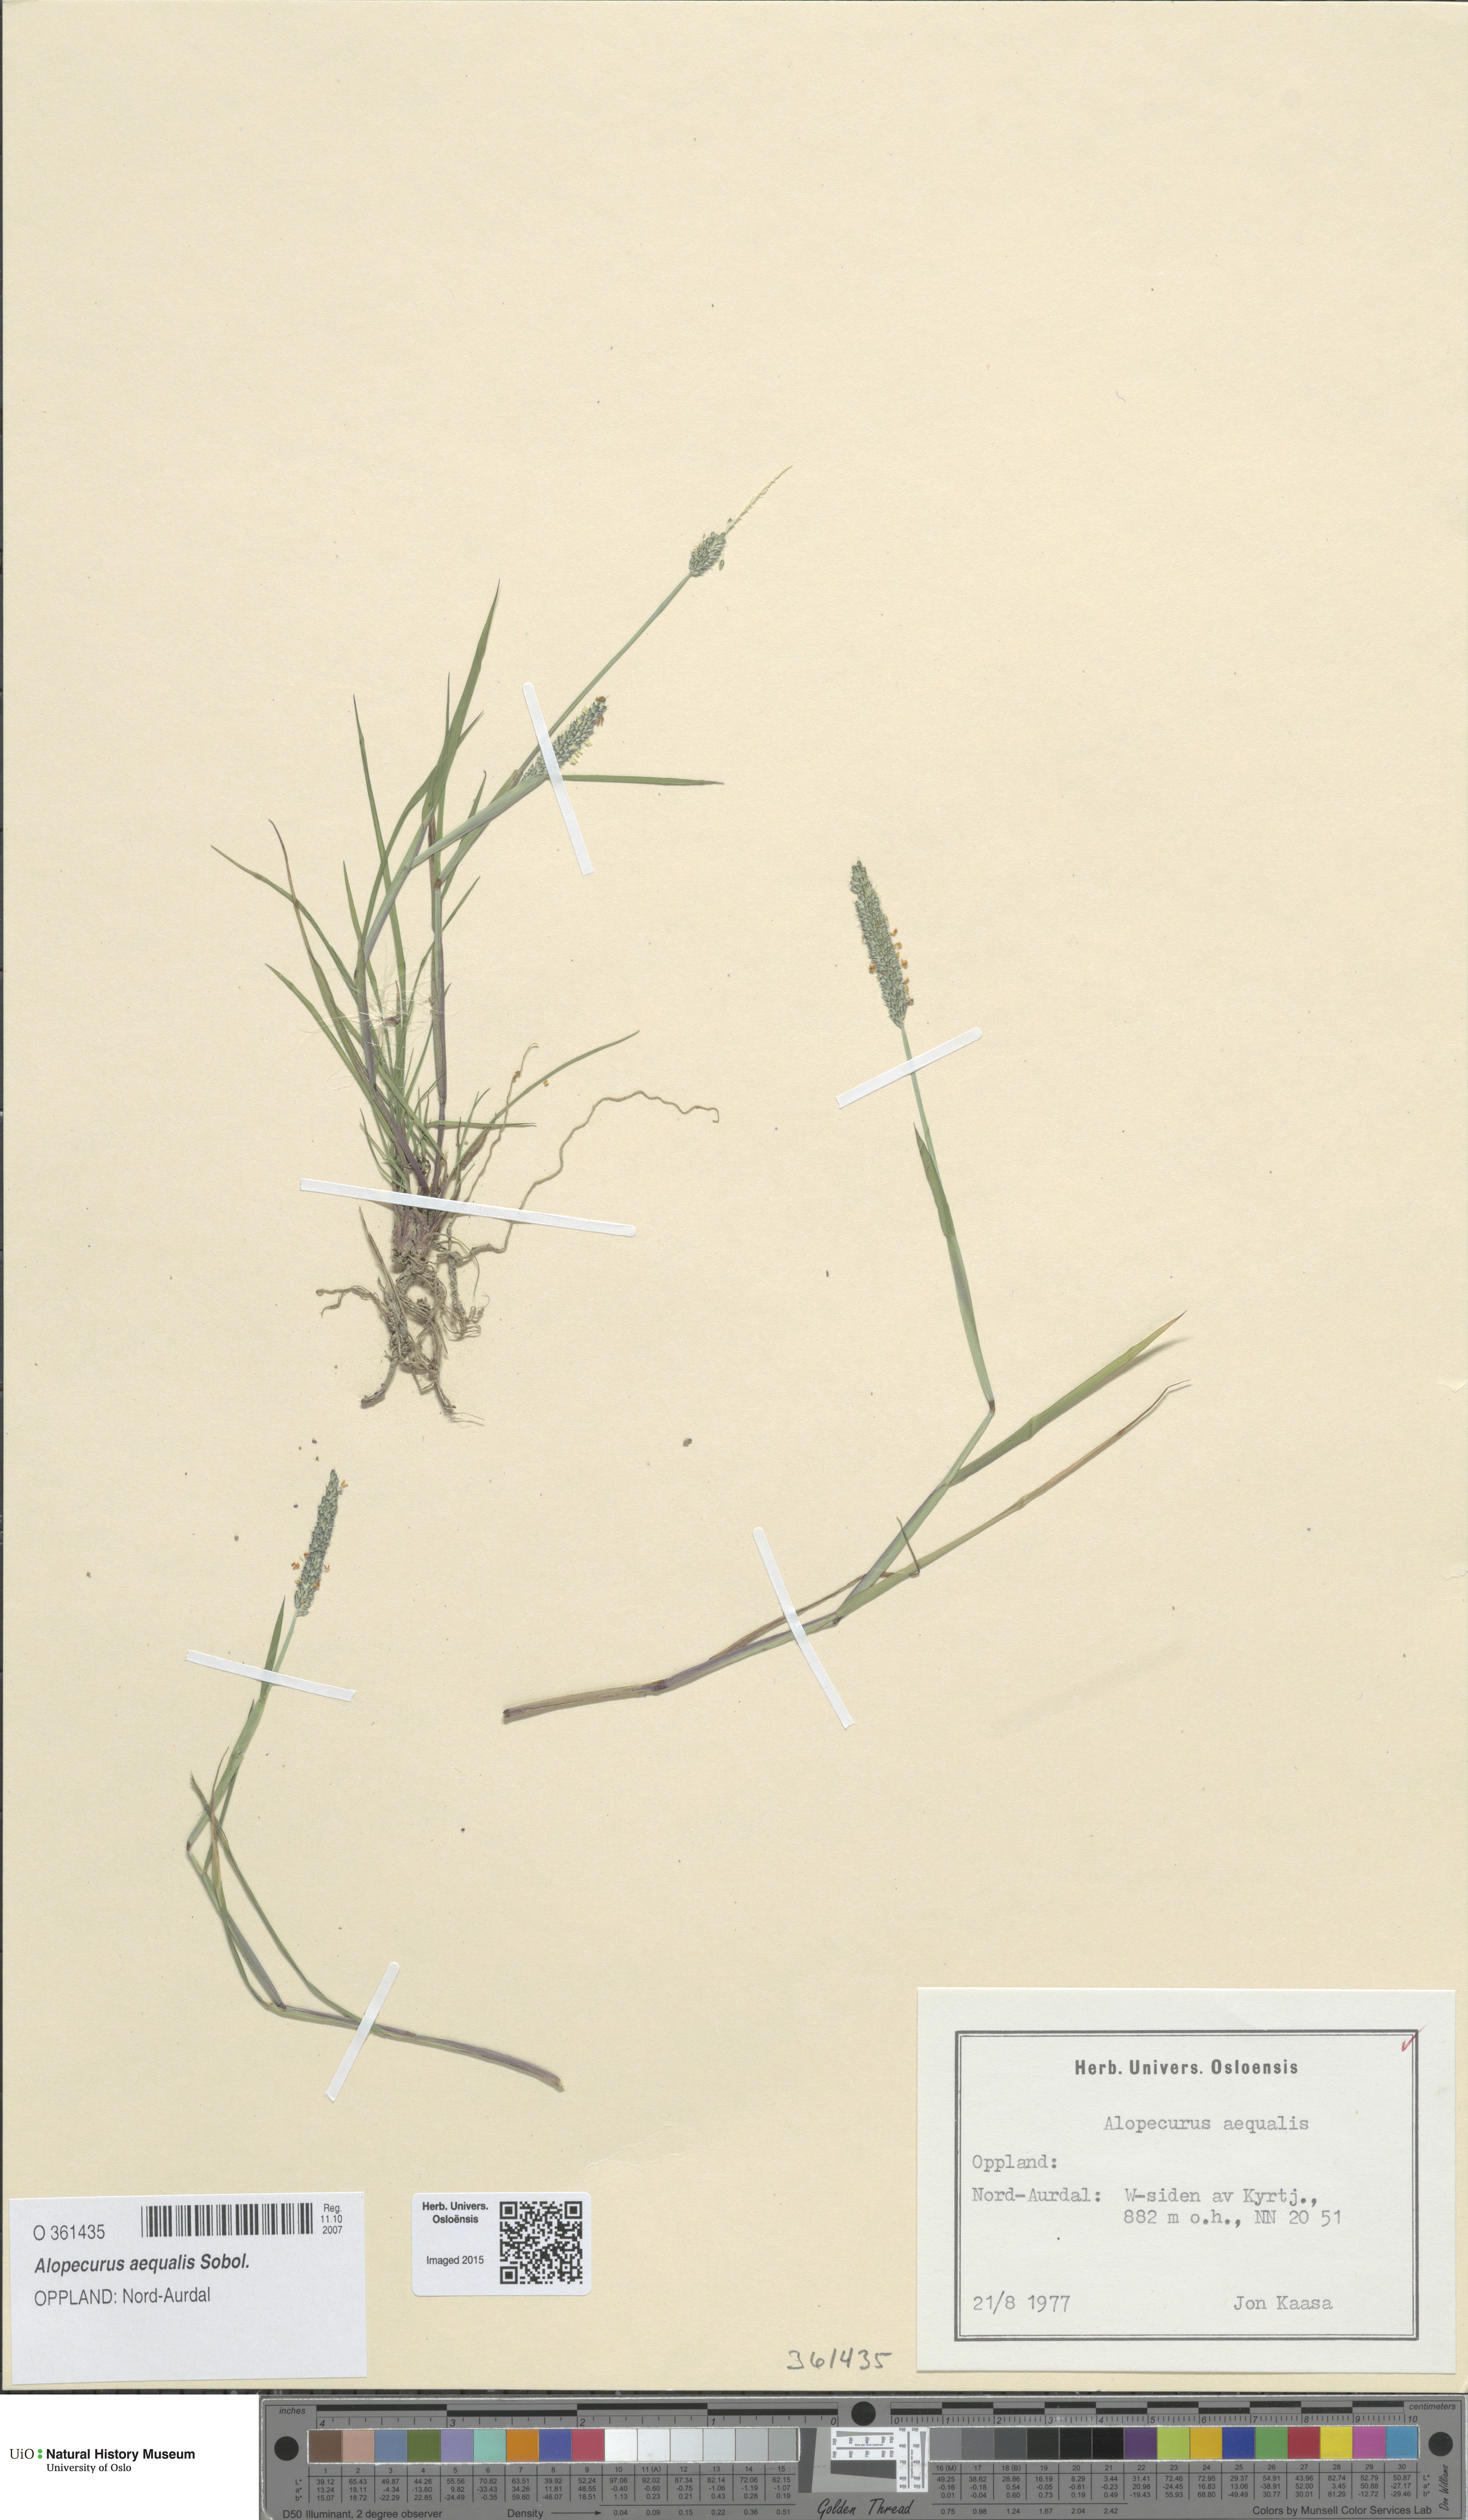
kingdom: Plantae
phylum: Tracheophyta
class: Liliopsida
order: Poales
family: Poaceae
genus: Alopecurus
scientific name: Alopecurus aequalis
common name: Orange foxtail
